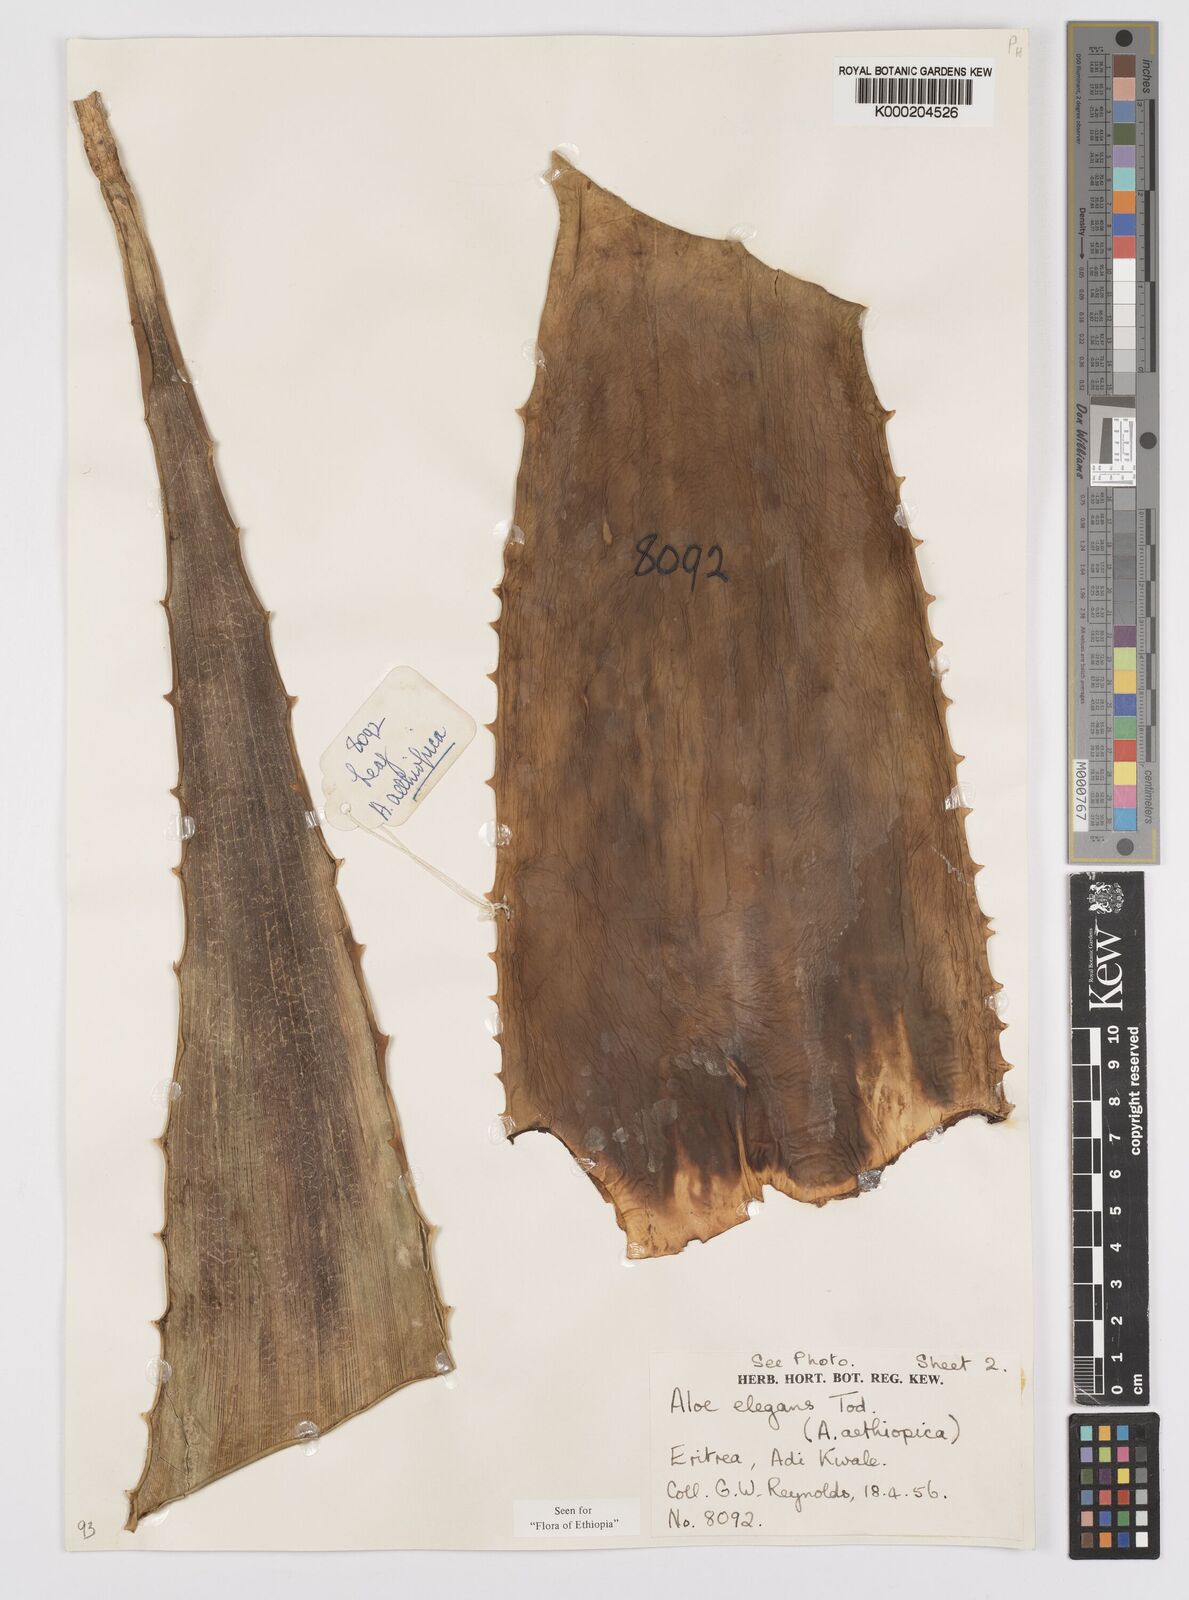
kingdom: Plantae
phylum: Tracheophyta
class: Liliopsida
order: Asparagales
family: Asphodelaceae
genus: Aloe
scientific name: Aloe elegans
